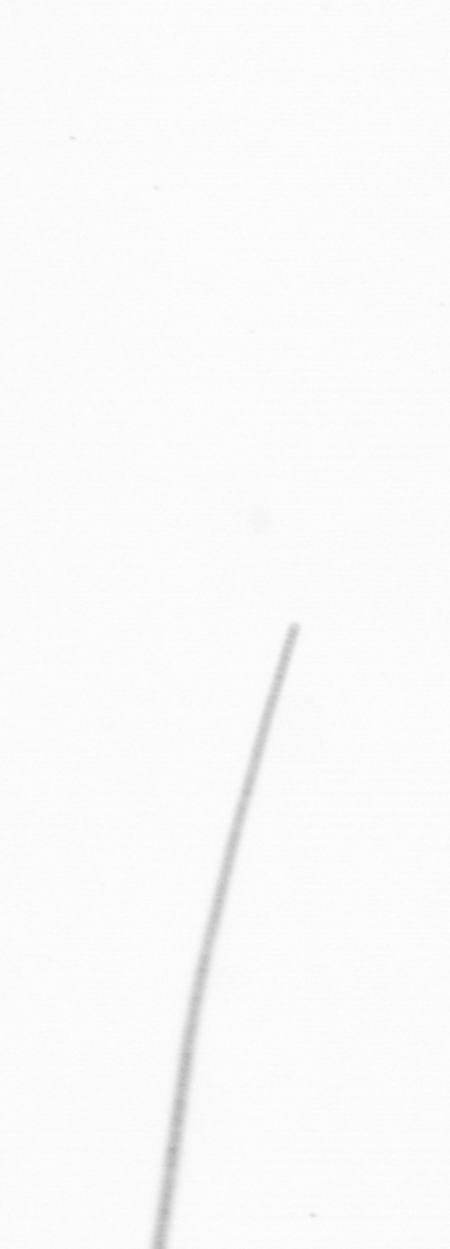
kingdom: Chromista
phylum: Ochrophyta
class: Bacillariophyceae
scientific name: Bacillariophyceae
